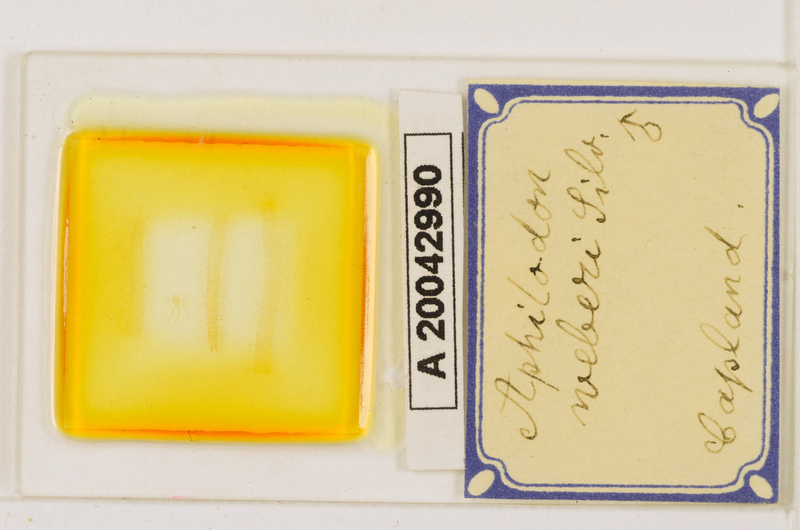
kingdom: Animalia
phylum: Arthropoda
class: Chilopoda
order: Geophilomorpha
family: Aphilodontidae
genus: Aphilodon
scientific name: Aphilodon weberi
